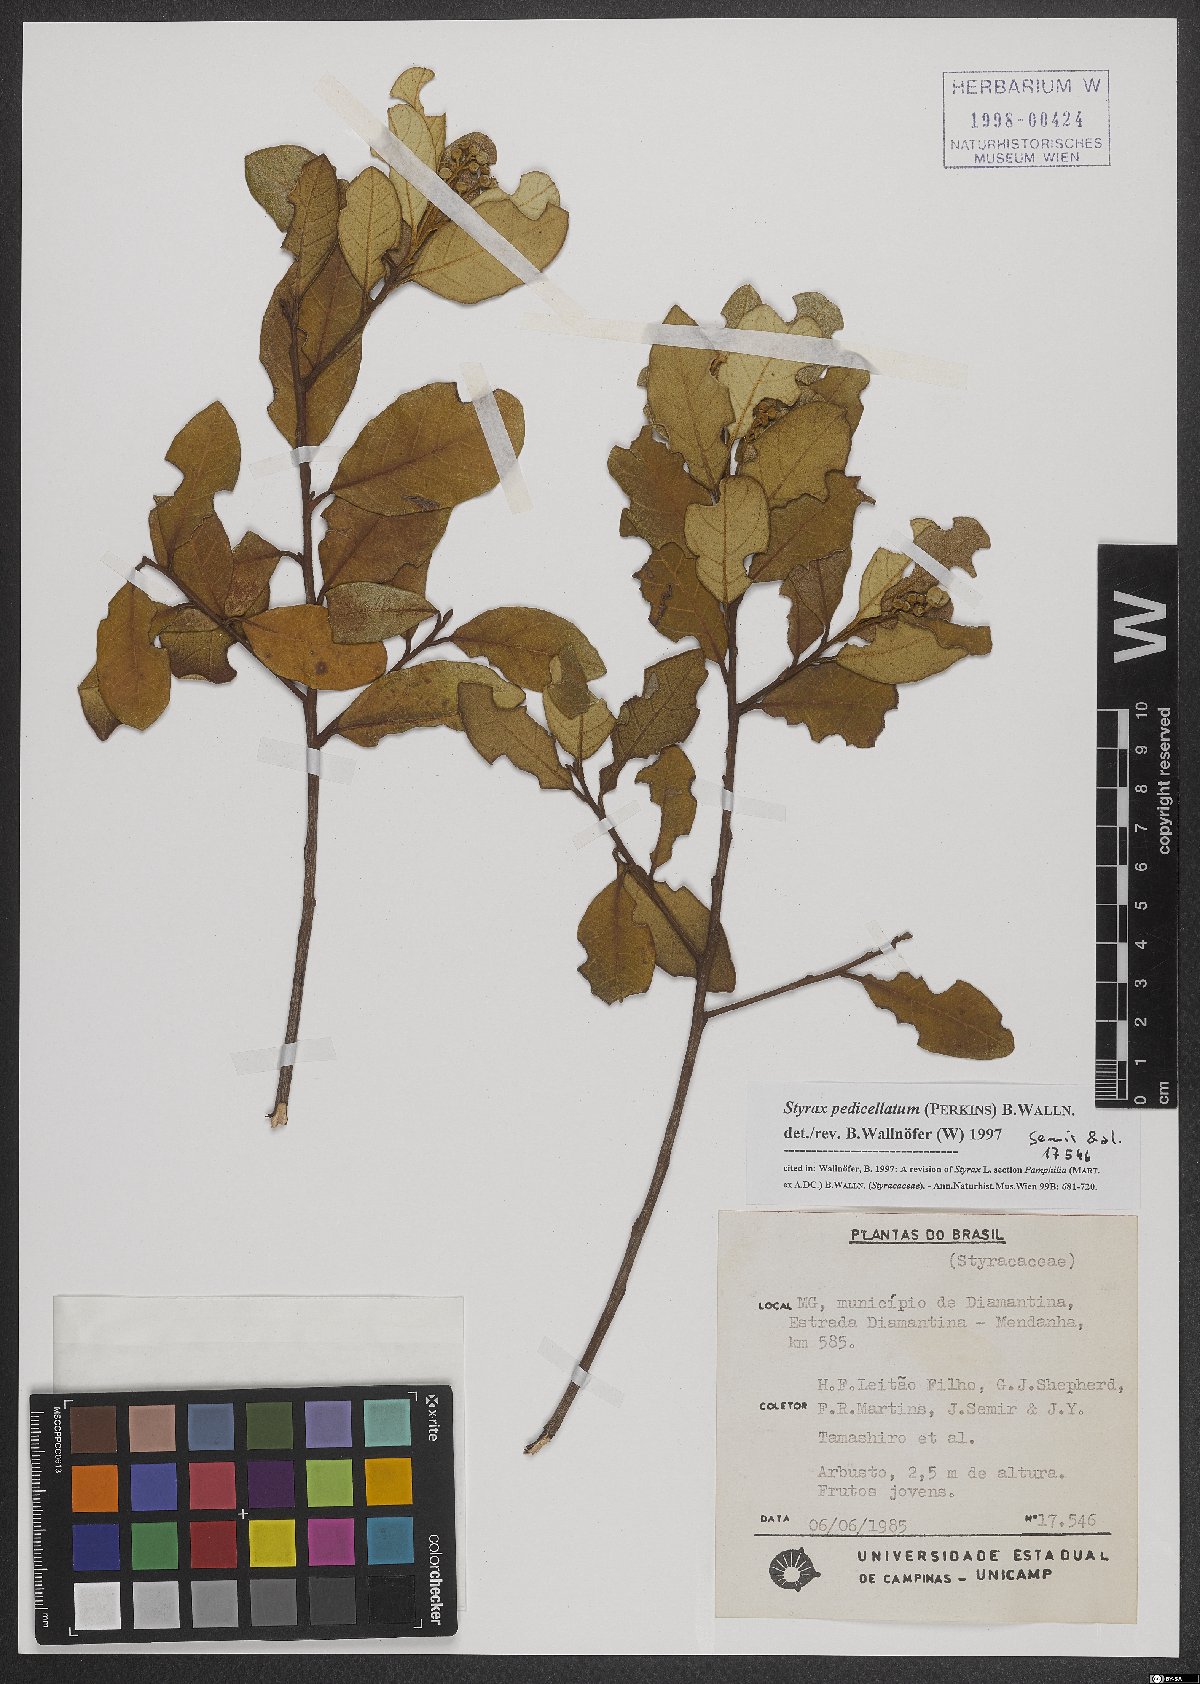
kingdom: Plantae
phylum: Tracheophyta
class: Magnoliopsida
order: Ericales
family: Styracaceae
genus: Styrax
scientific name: Styrax pedicellatus
